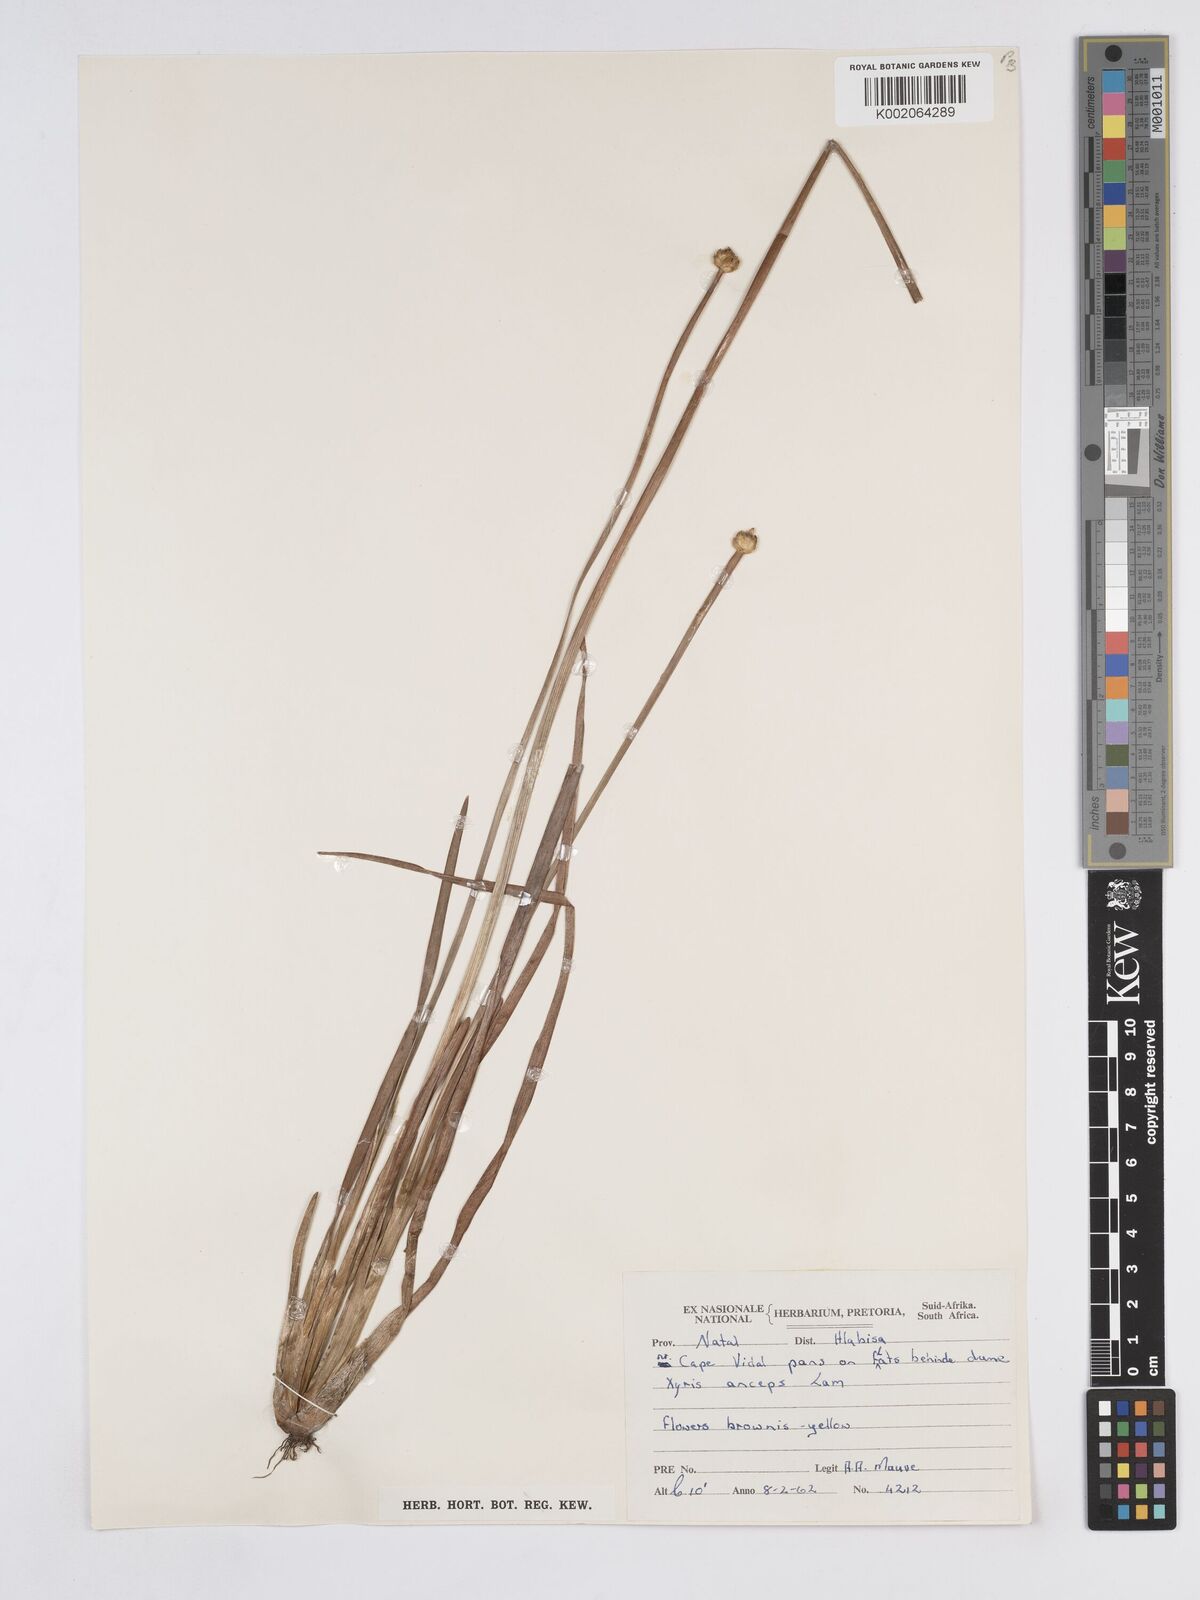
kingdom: Plantae
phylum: Tracheophyta
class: Liliopsida
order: Poales
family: Xyridaceae
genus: Xyris
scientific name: Xyris anceps
